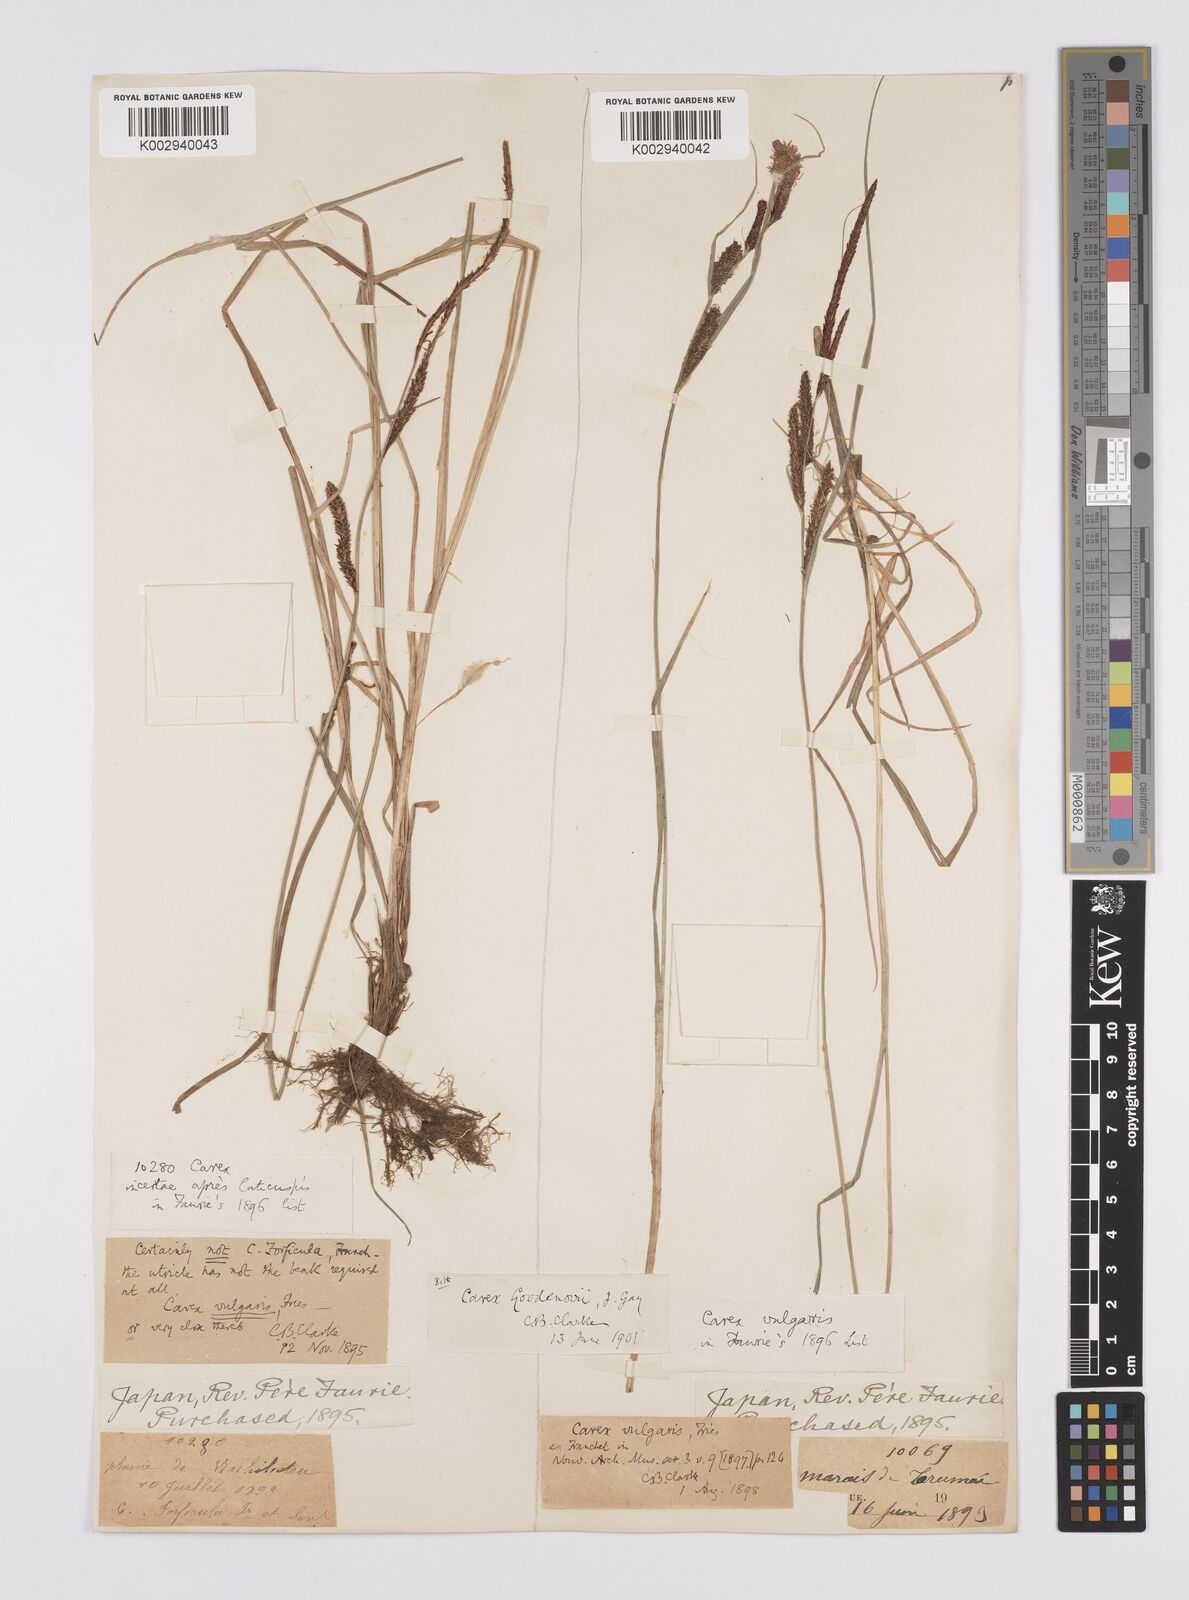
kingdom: Plantae
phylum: Tracheophyta
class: Liliopsida
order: Poales
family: Cyperaceae
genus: Carex
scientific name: Carex thunbergii
